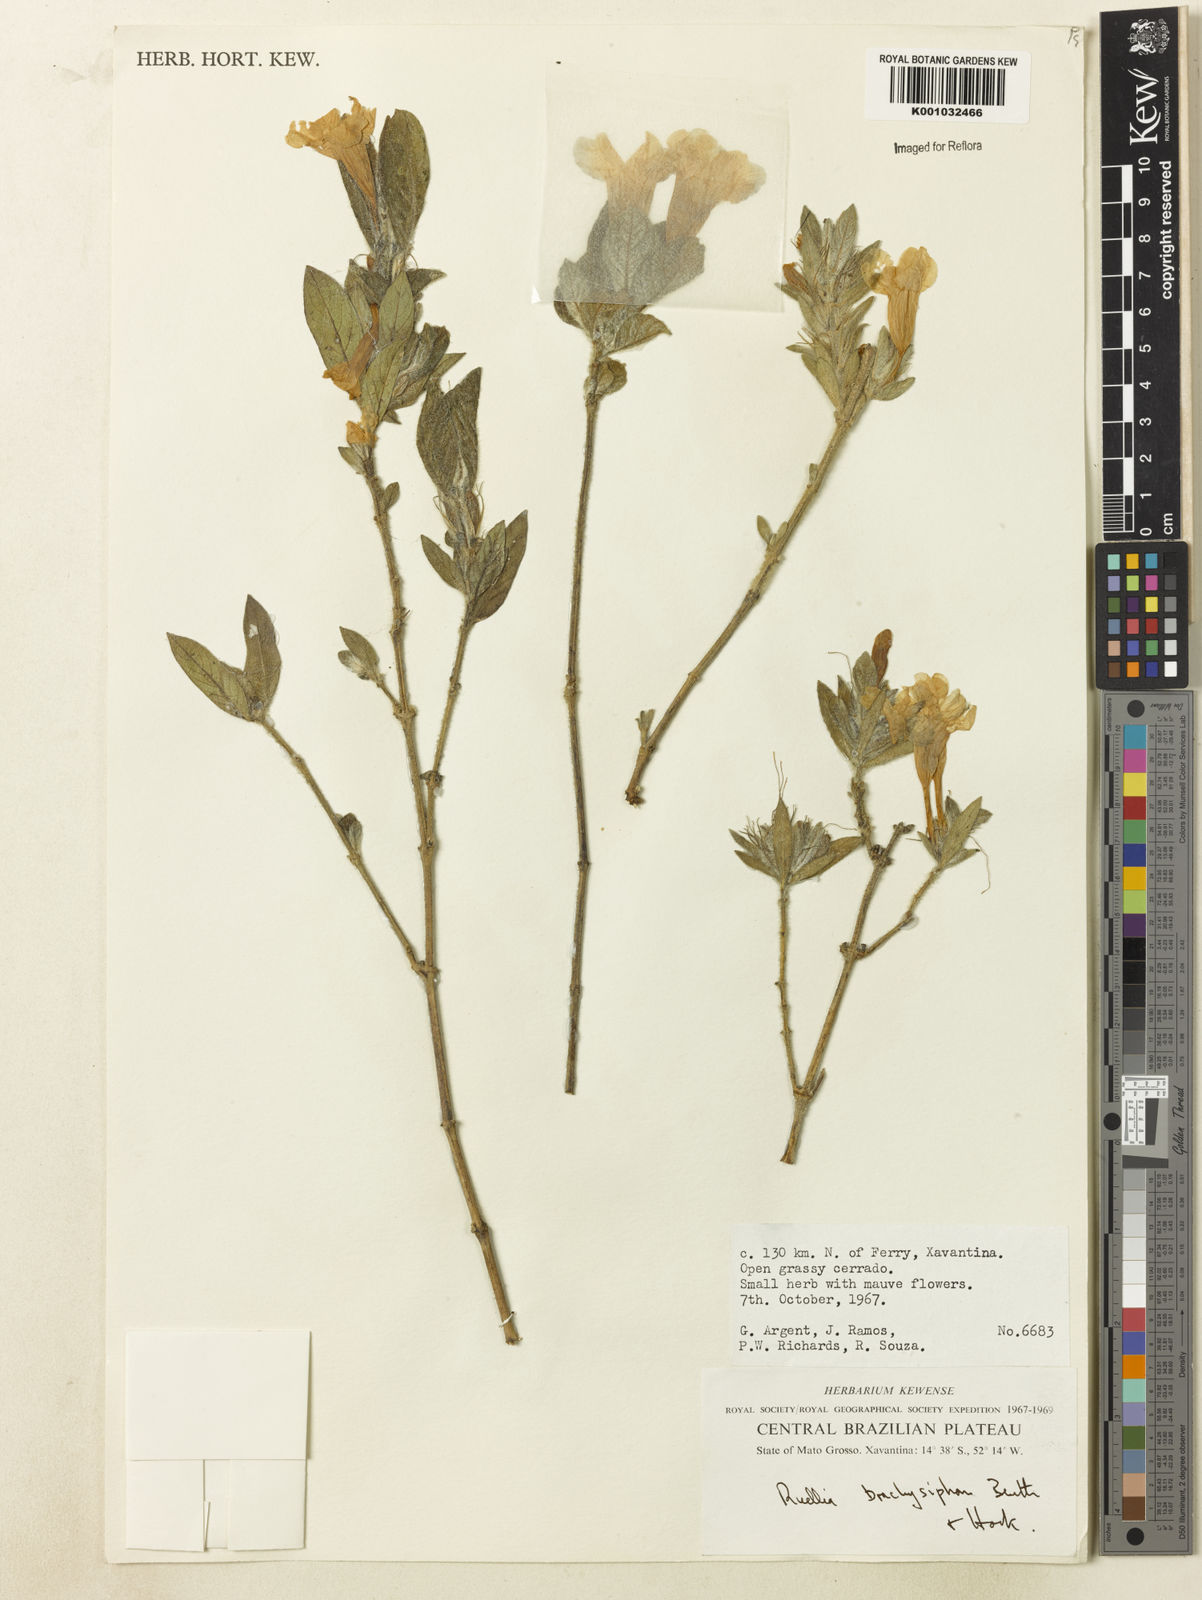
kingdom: Plantae
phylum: Tracheophyta
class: Magnoliopsida
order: Lamiales
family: Acanthaceae
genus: Ruellia
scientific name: Ruellia
